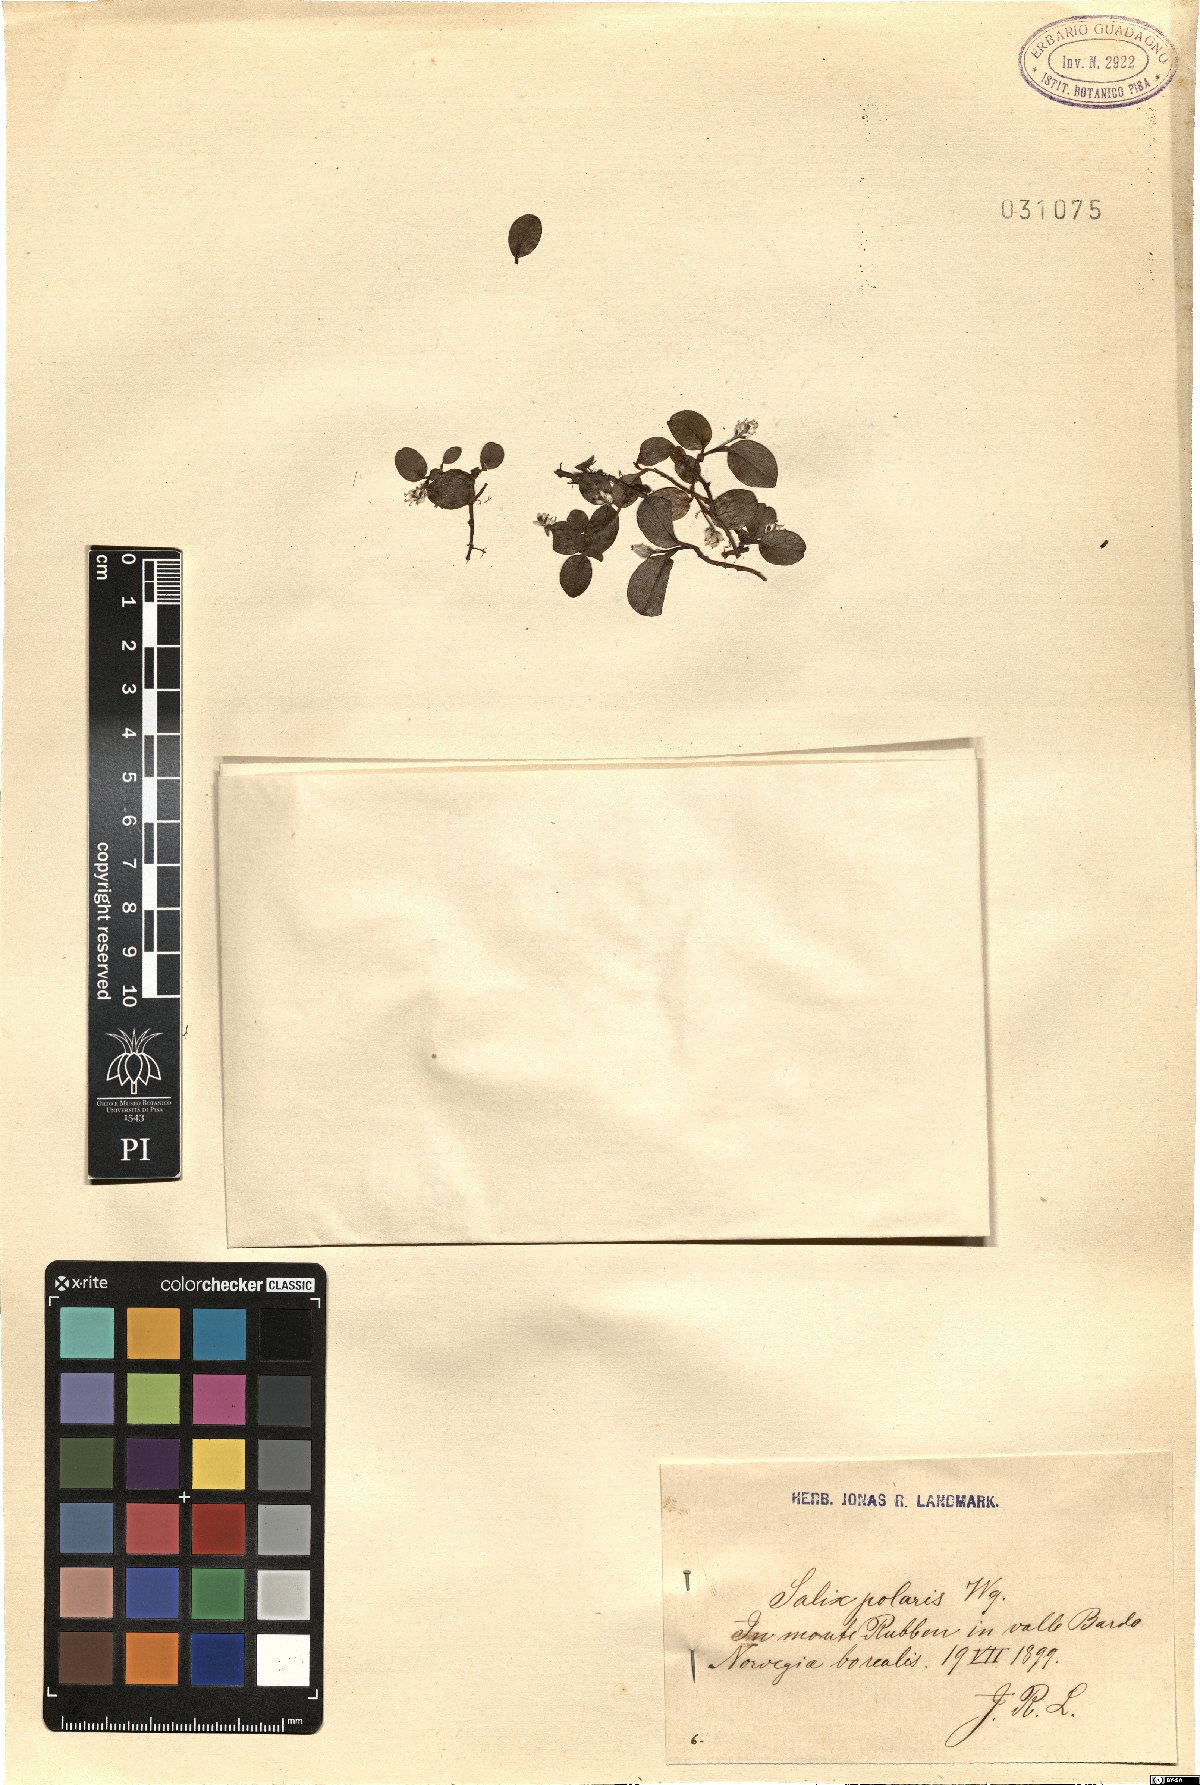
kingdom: Plantae
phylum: Tracheophyta
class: Magnoliopsida
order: Malpighiales
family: Salicaceae
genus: Salix
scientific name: Salix polaris
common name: Polar willow
